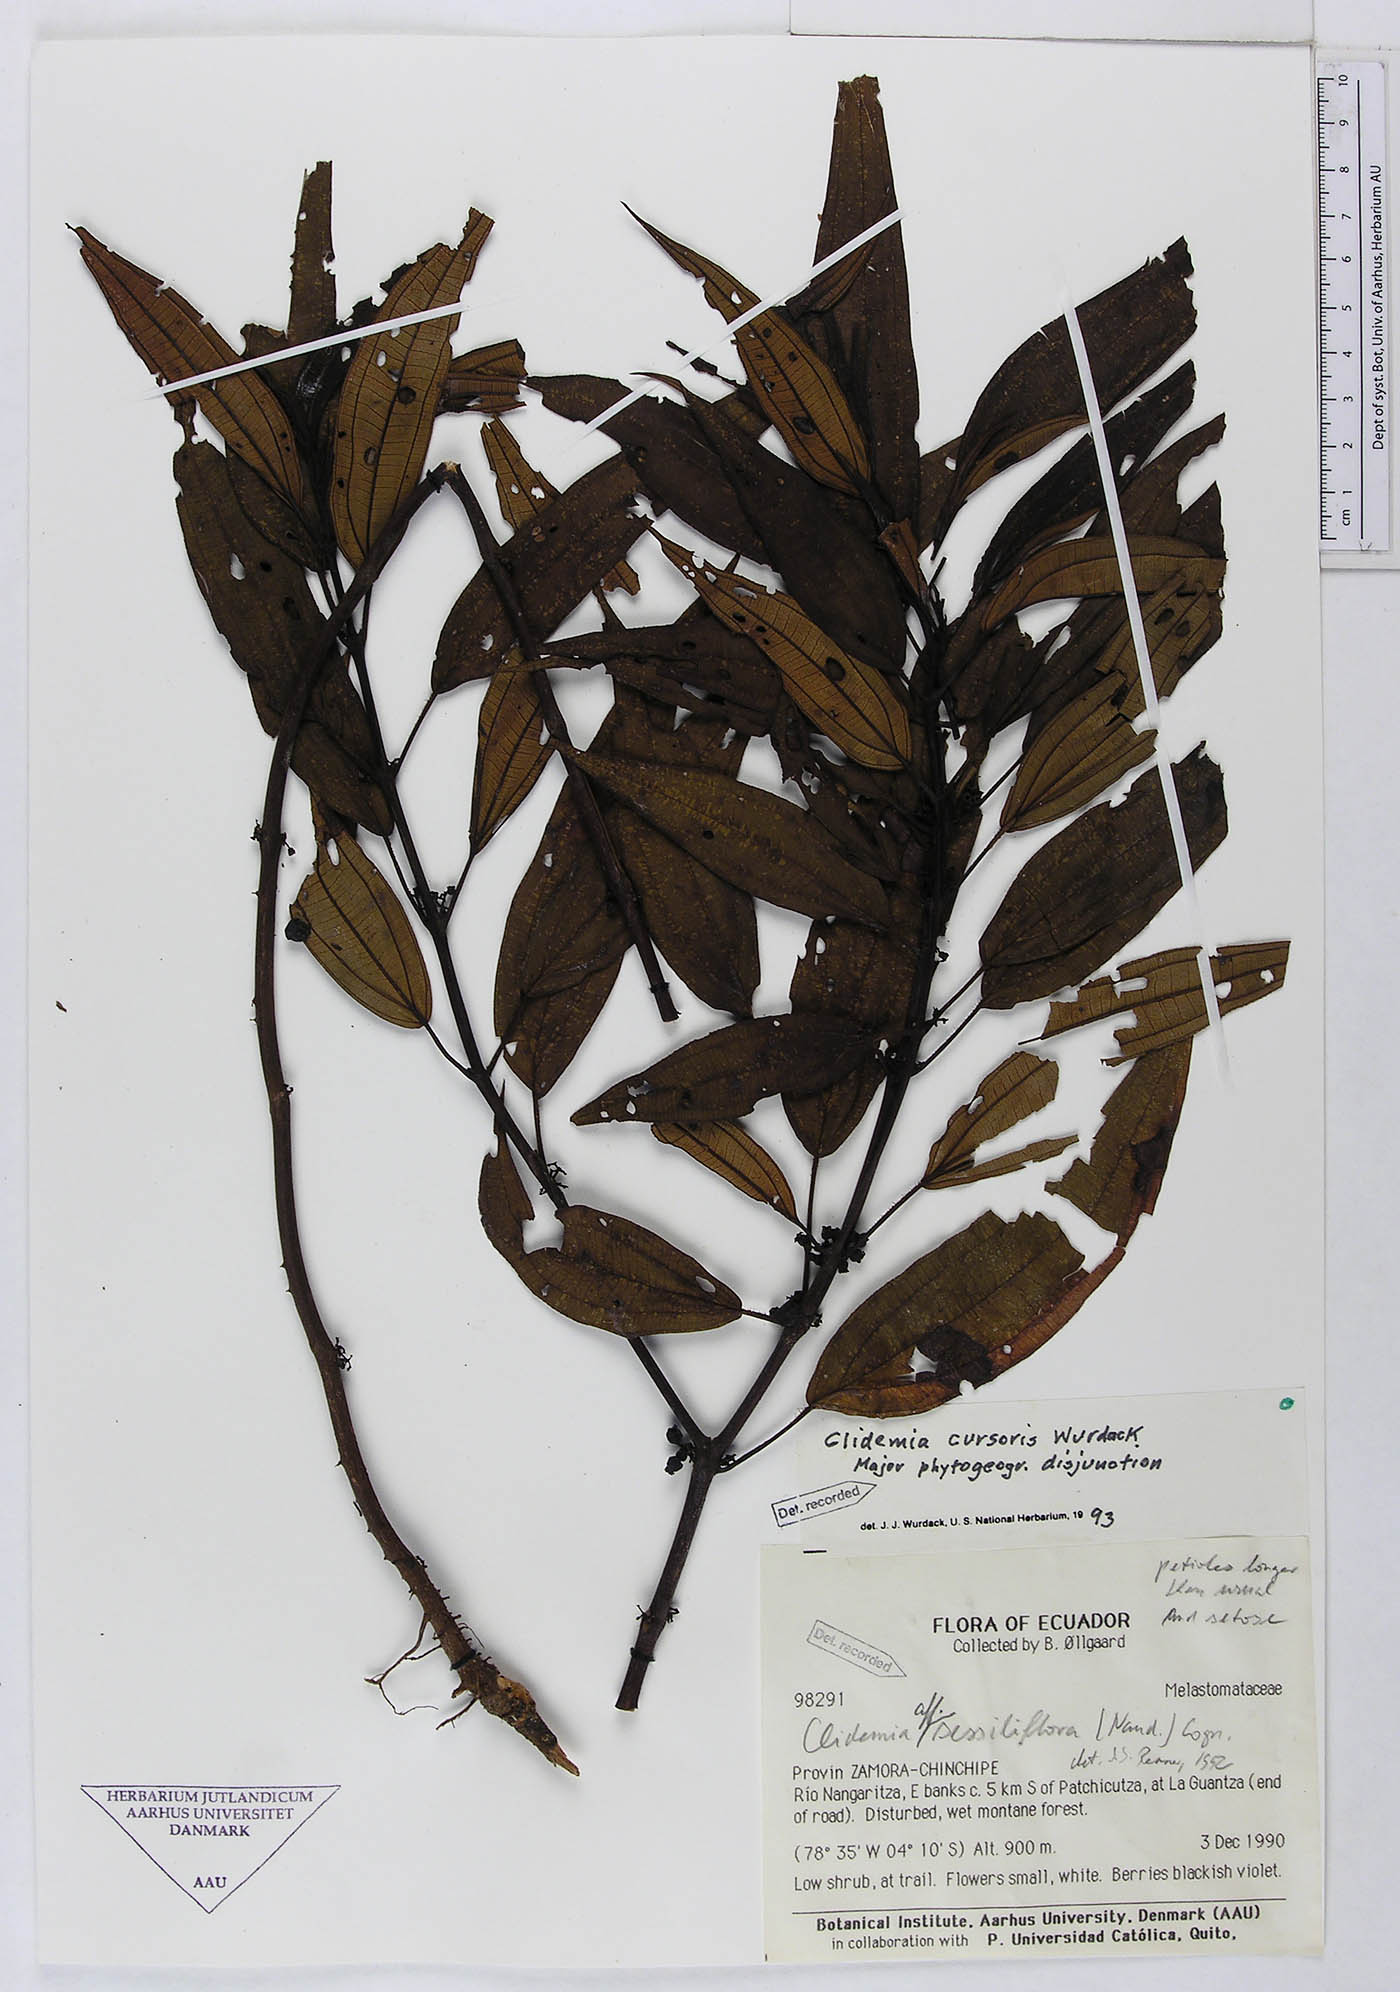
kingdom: Plantae
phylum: Tracheophyta
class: Magnoliopsida
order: Myrtales
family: Melastomataceae
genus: Miconia
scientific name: Miconia cursoris
